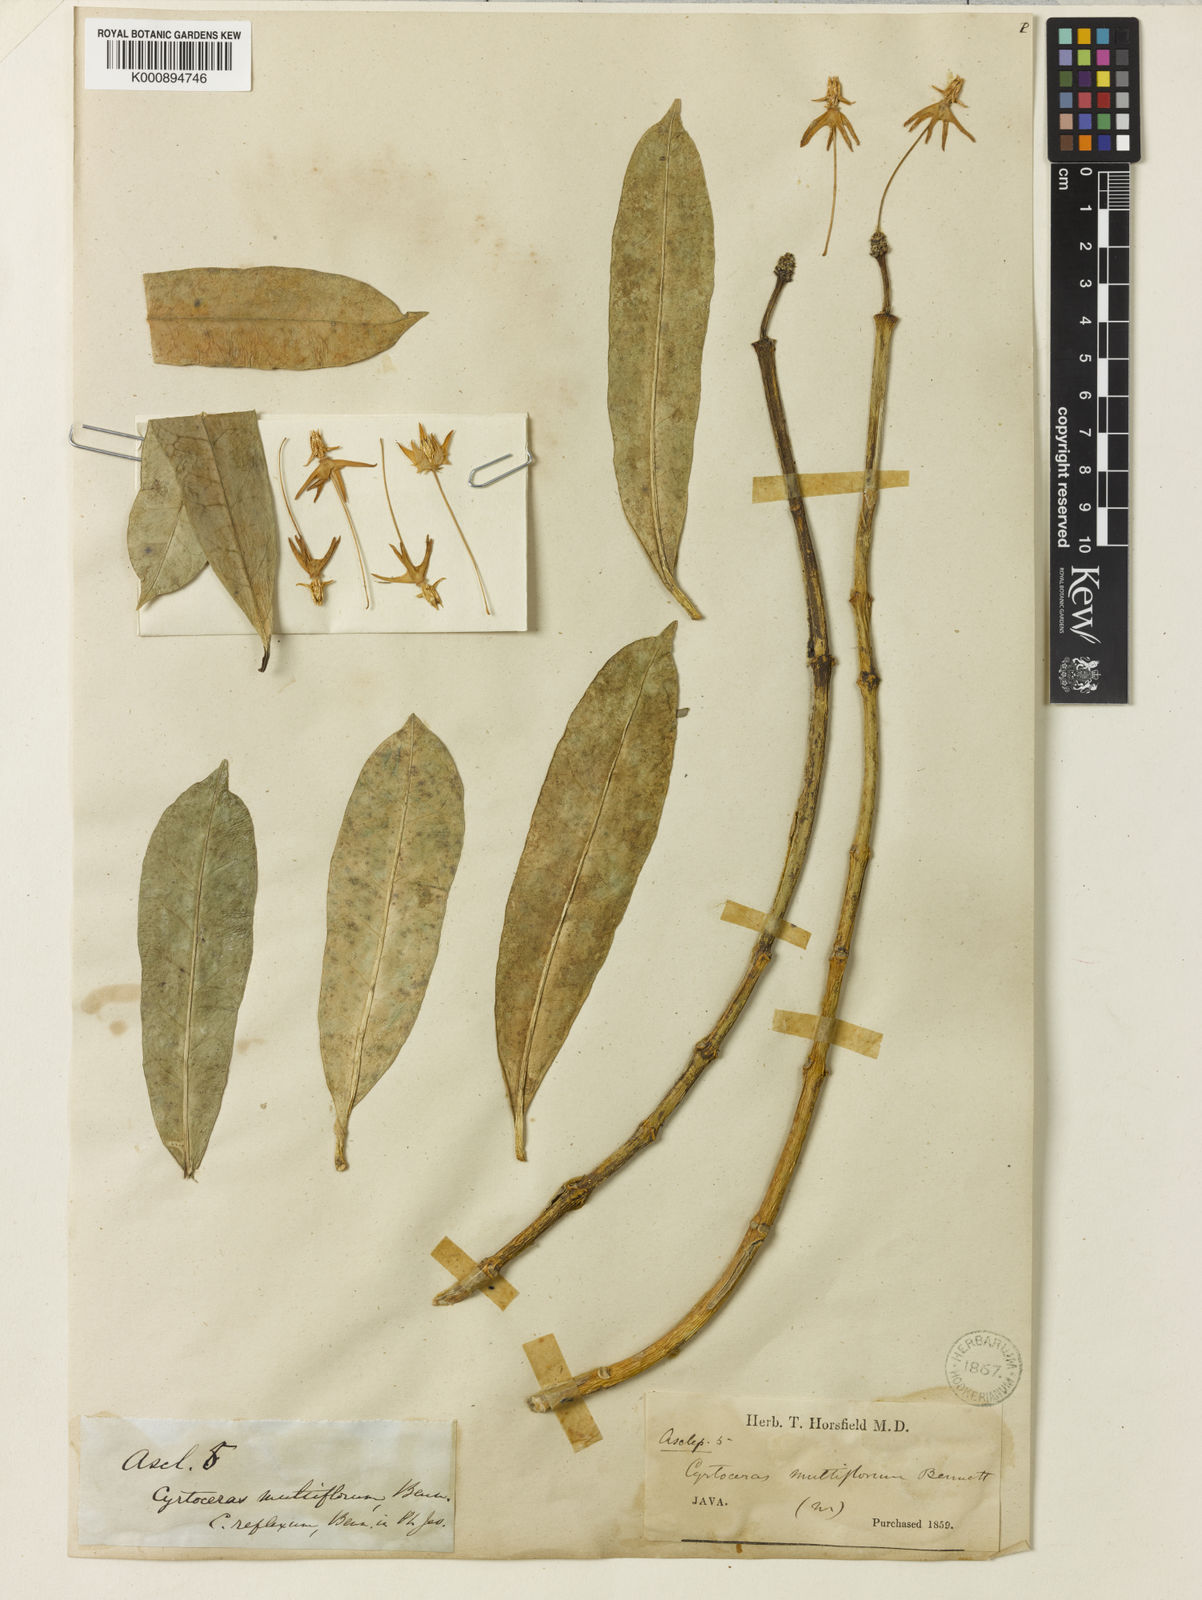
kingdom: Plantae
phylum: Tracheophyta
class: Magnoliopsida
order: Gentianales
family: Apocynaceae
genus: Hoya
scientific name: Hoya multiflora
